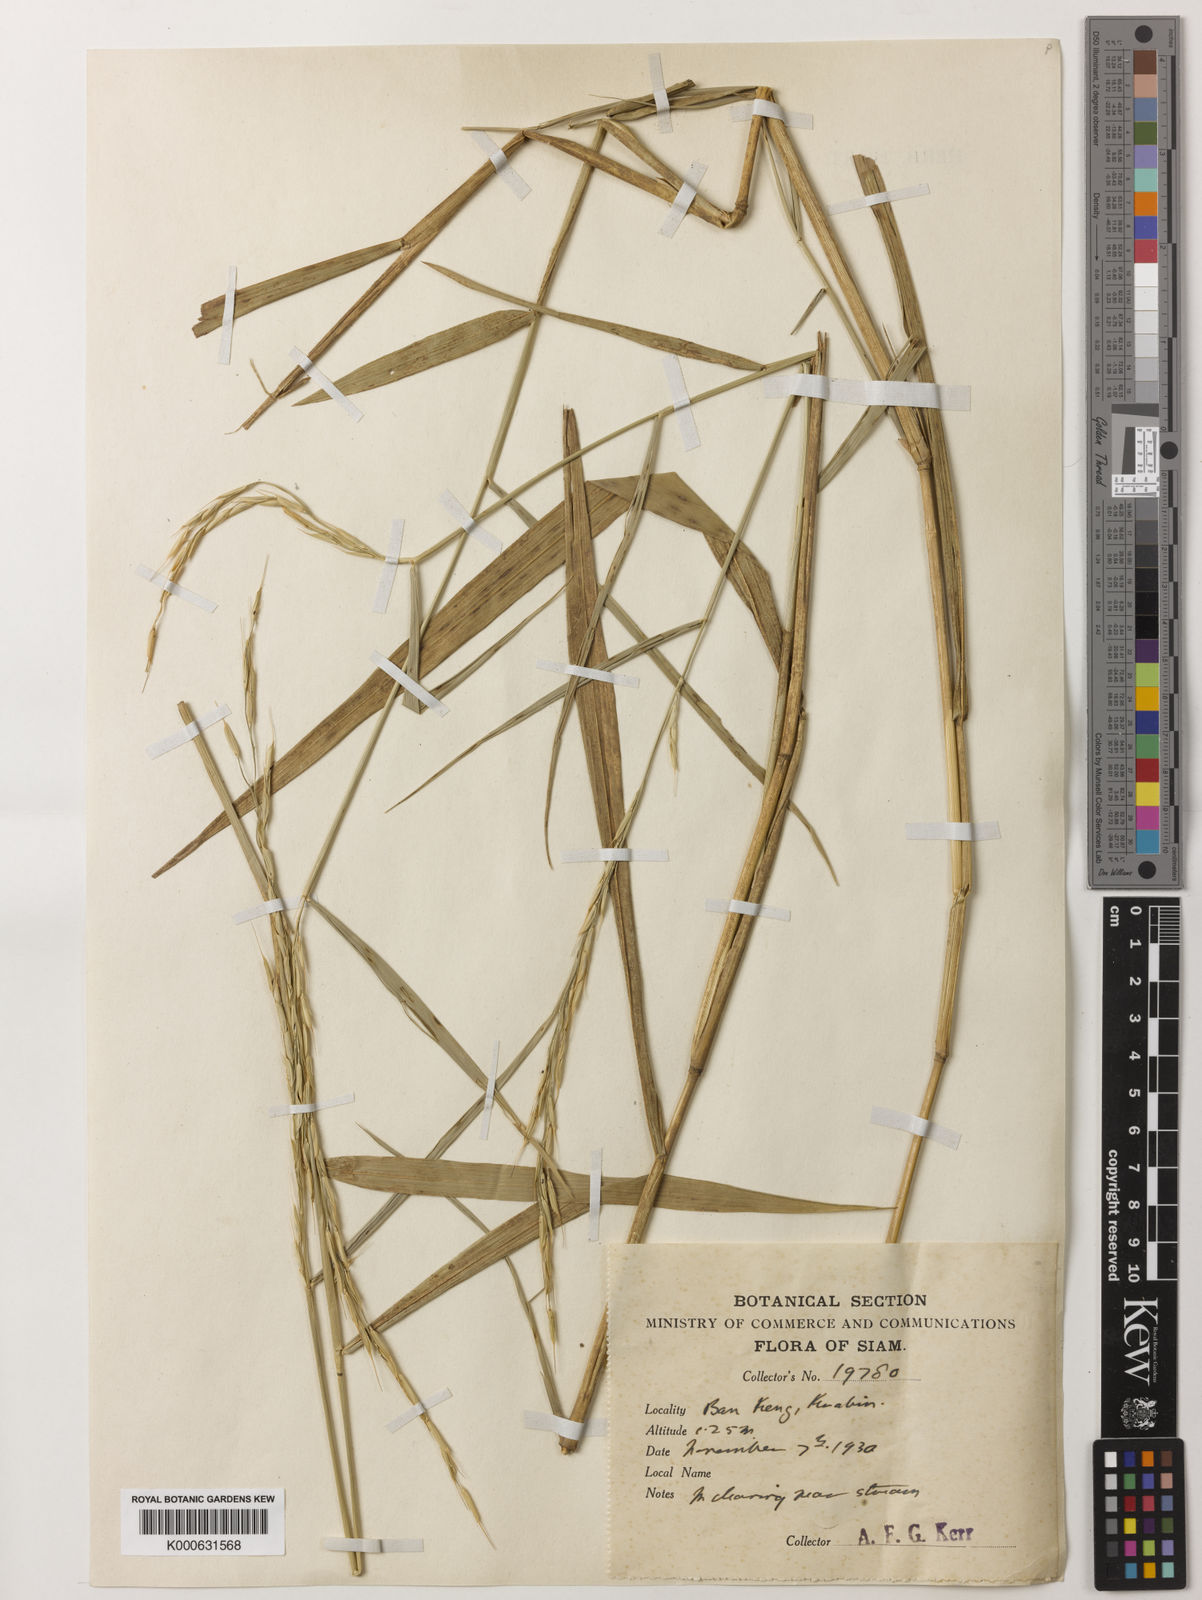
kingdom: Plantae
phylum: Tracheophyta
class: Liliopsida
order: Poales
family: Poaceae
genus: Oryza
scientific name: Oryza ridleyi
